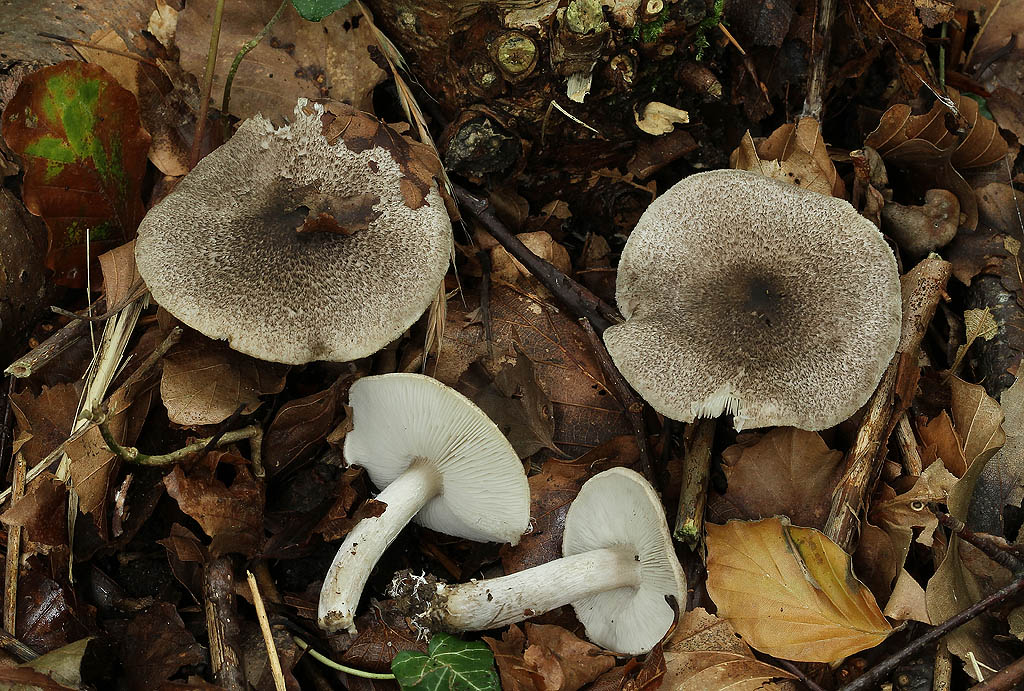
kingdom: Fungi
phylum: Basidiomycota
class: Agaricomycetes
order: Agaricales
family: Tricholomataceae
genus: Tricholoma
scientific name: Tricholoma scalpturatum
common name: gulplettet ridderhat
